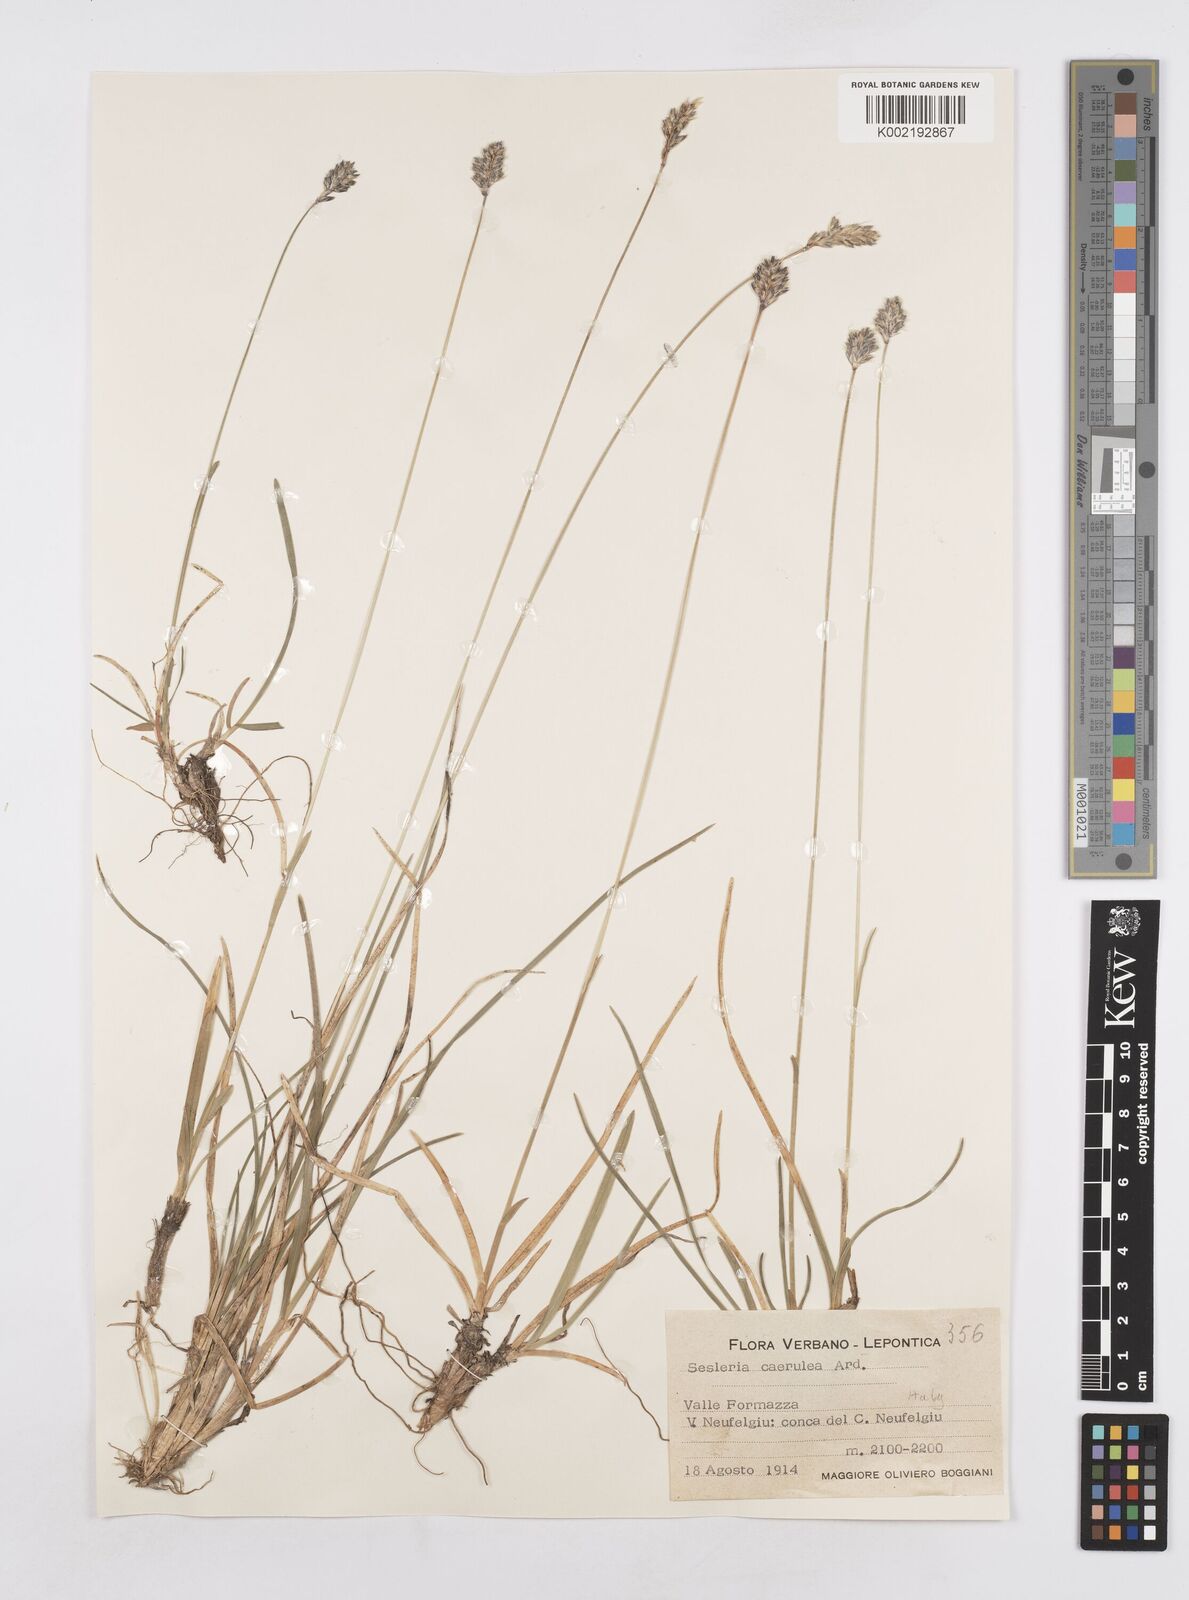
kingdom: Plantae
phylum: Tracheophyta
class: Liliopsida
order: Poales
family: Poaceae
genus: Sesleria
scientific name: Sesleria albicans
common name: Blue moor-grass
